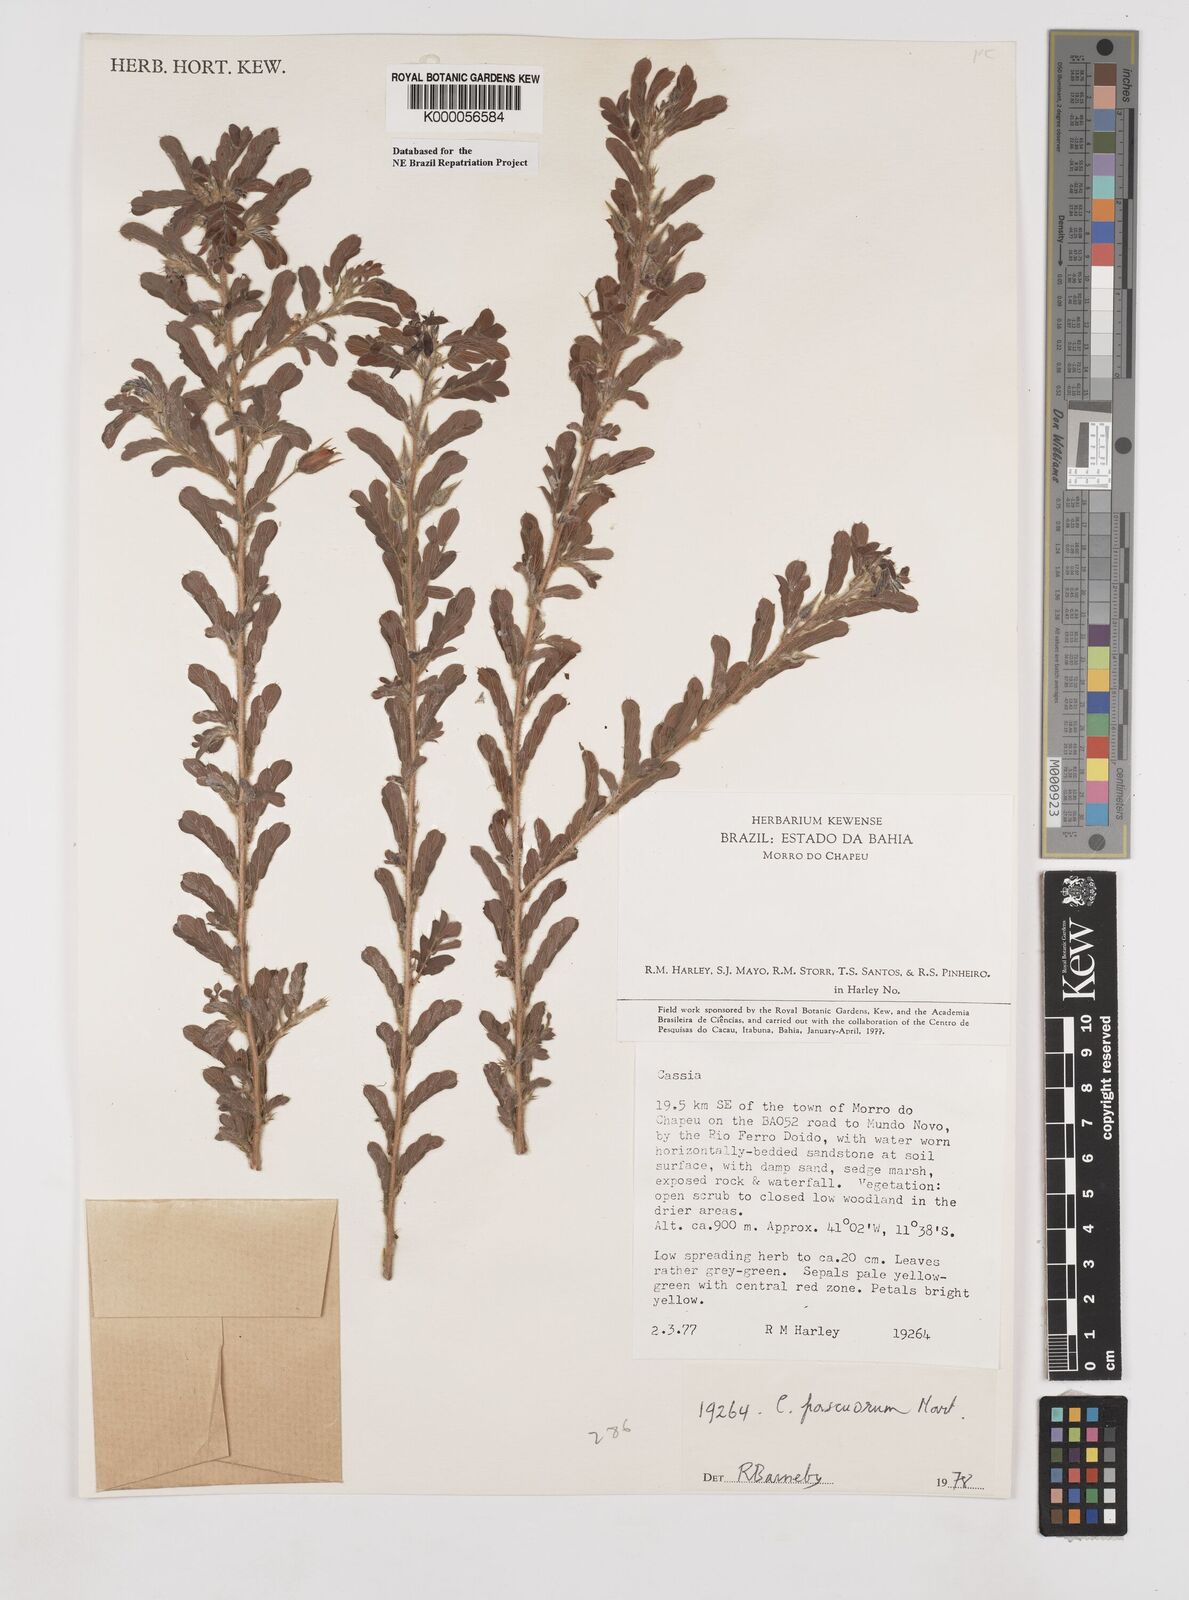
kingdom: Plantae
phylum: Tracheophyta
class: Magnoliopsida
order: Fabales
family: Fabaceae
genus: Chamaecrista
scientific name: Chamaecrista pascuorum
